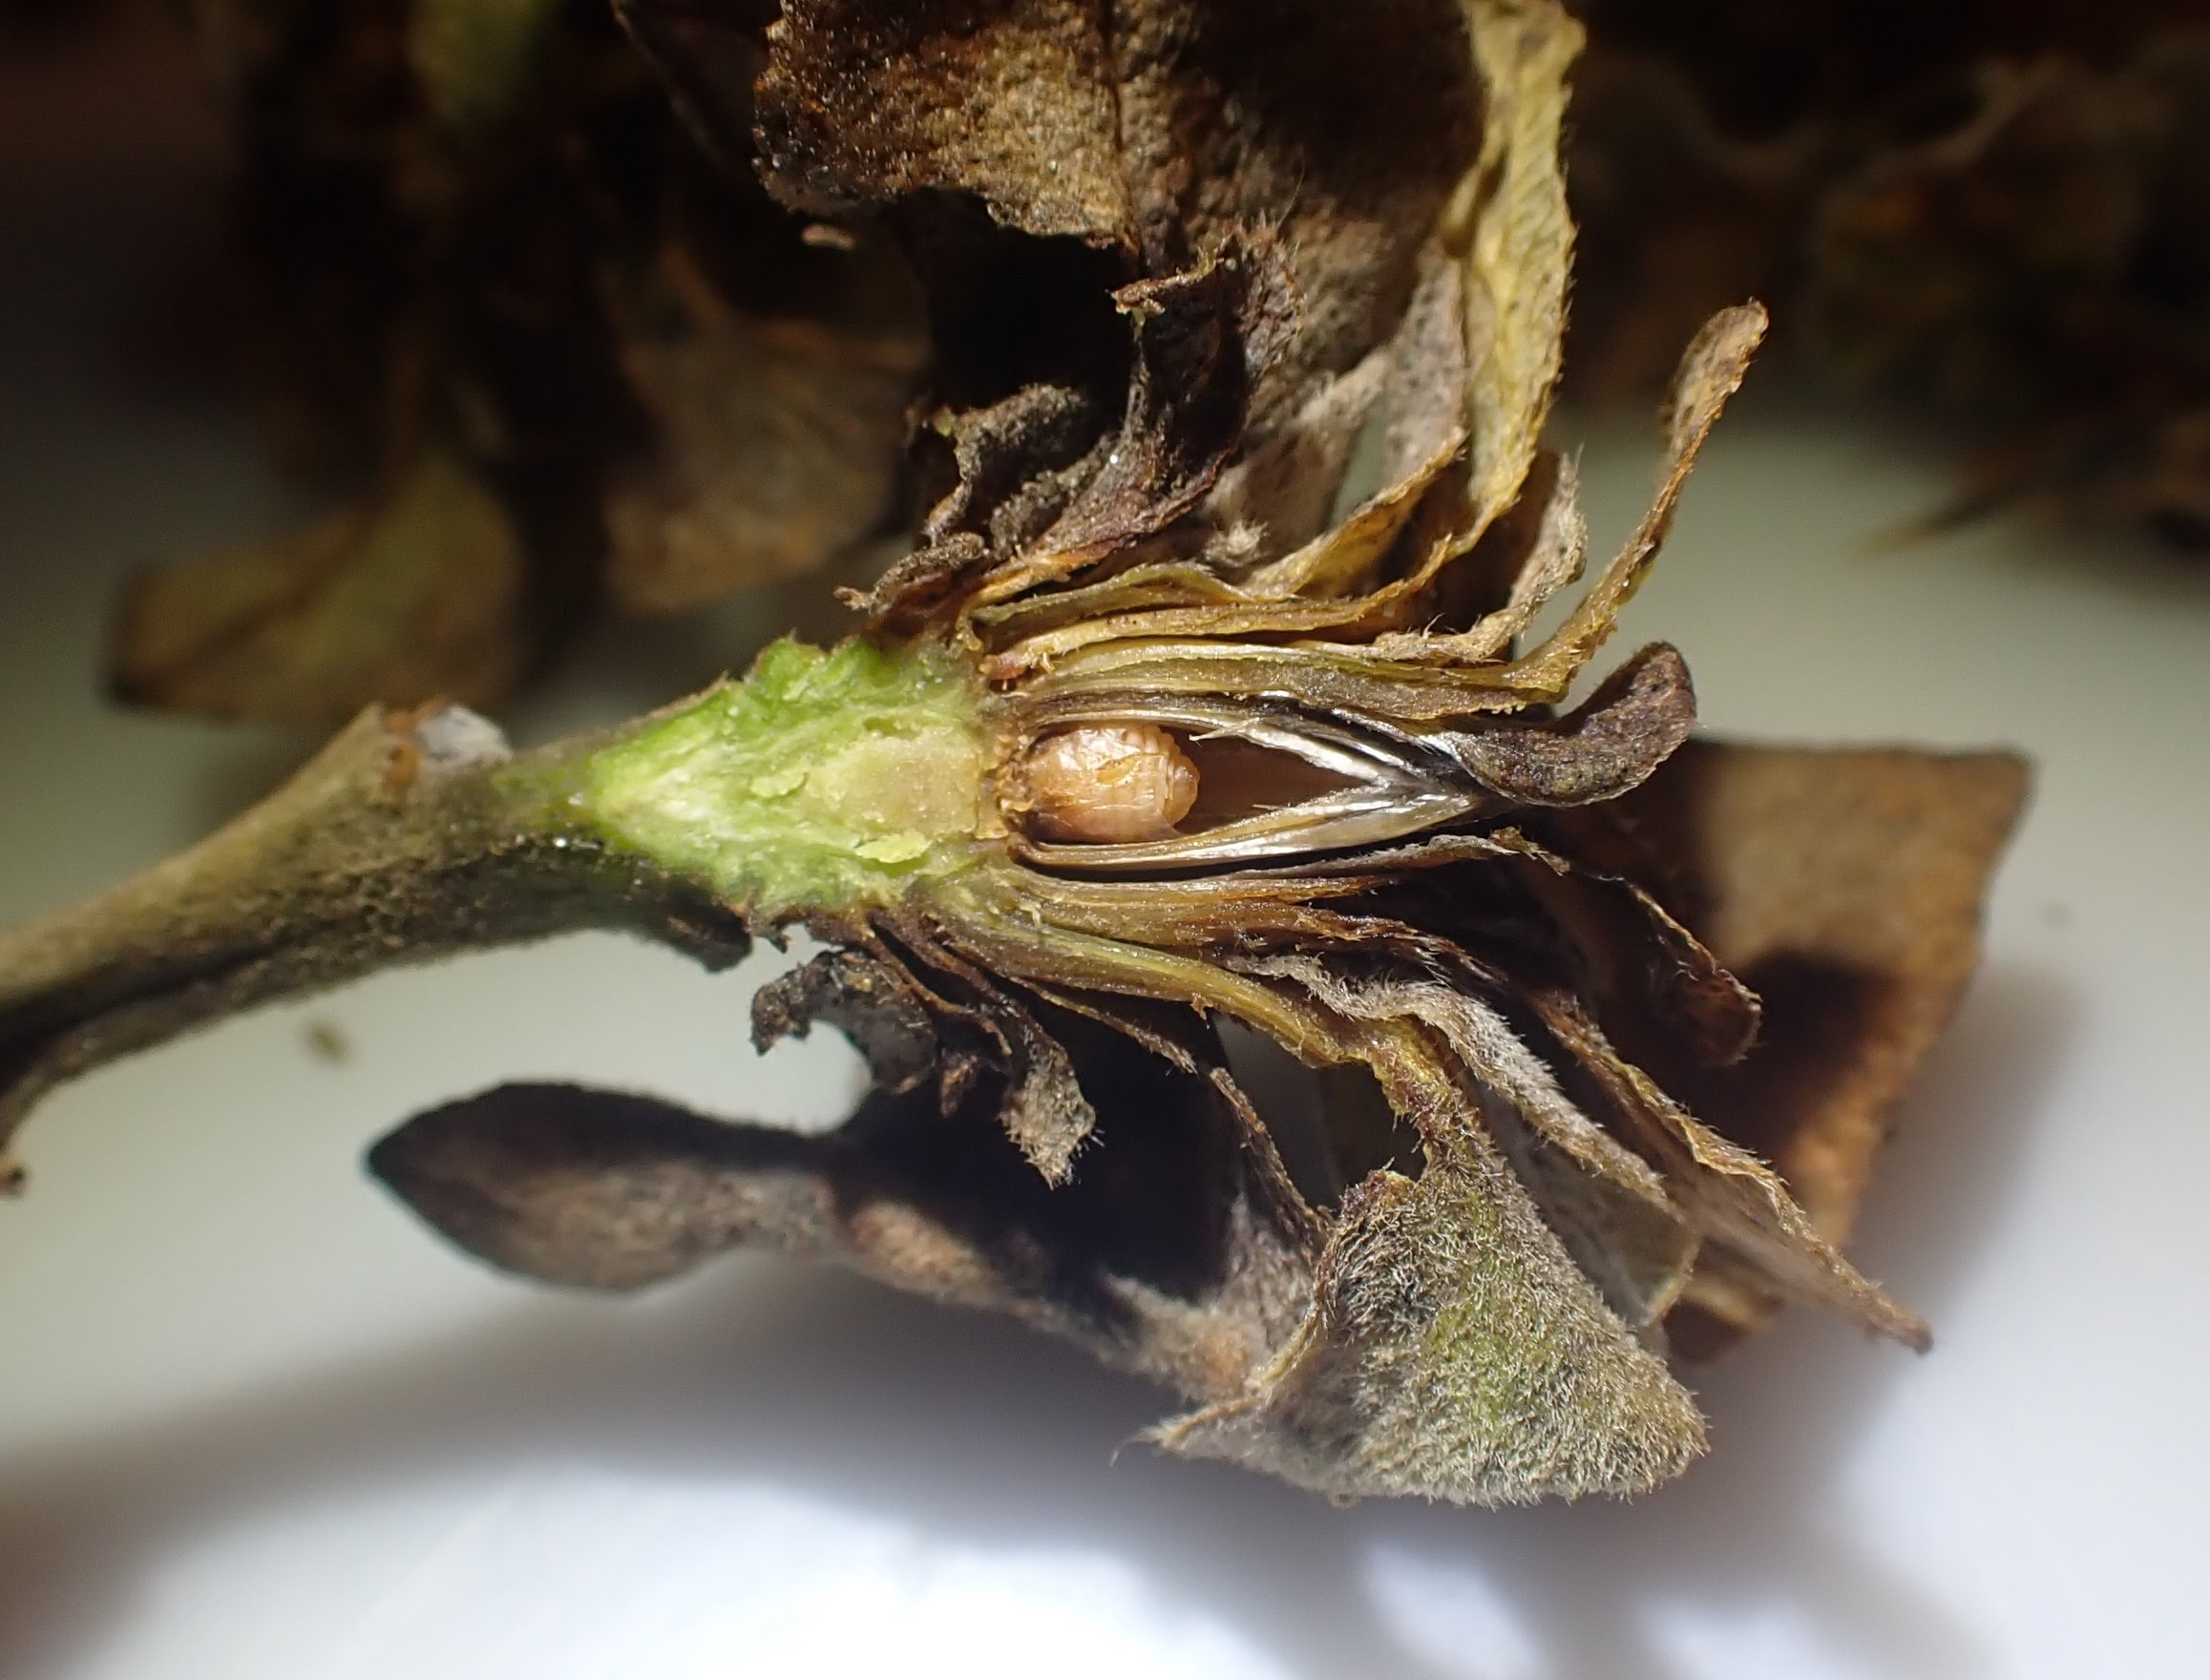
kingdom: Animalia
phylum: Arthropoda
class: Insecta
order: Diptera
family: Cecidomyiidae
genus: Rabdophaga
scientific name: Rabdophaga rosaria
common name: Pilerosetgalmyg
